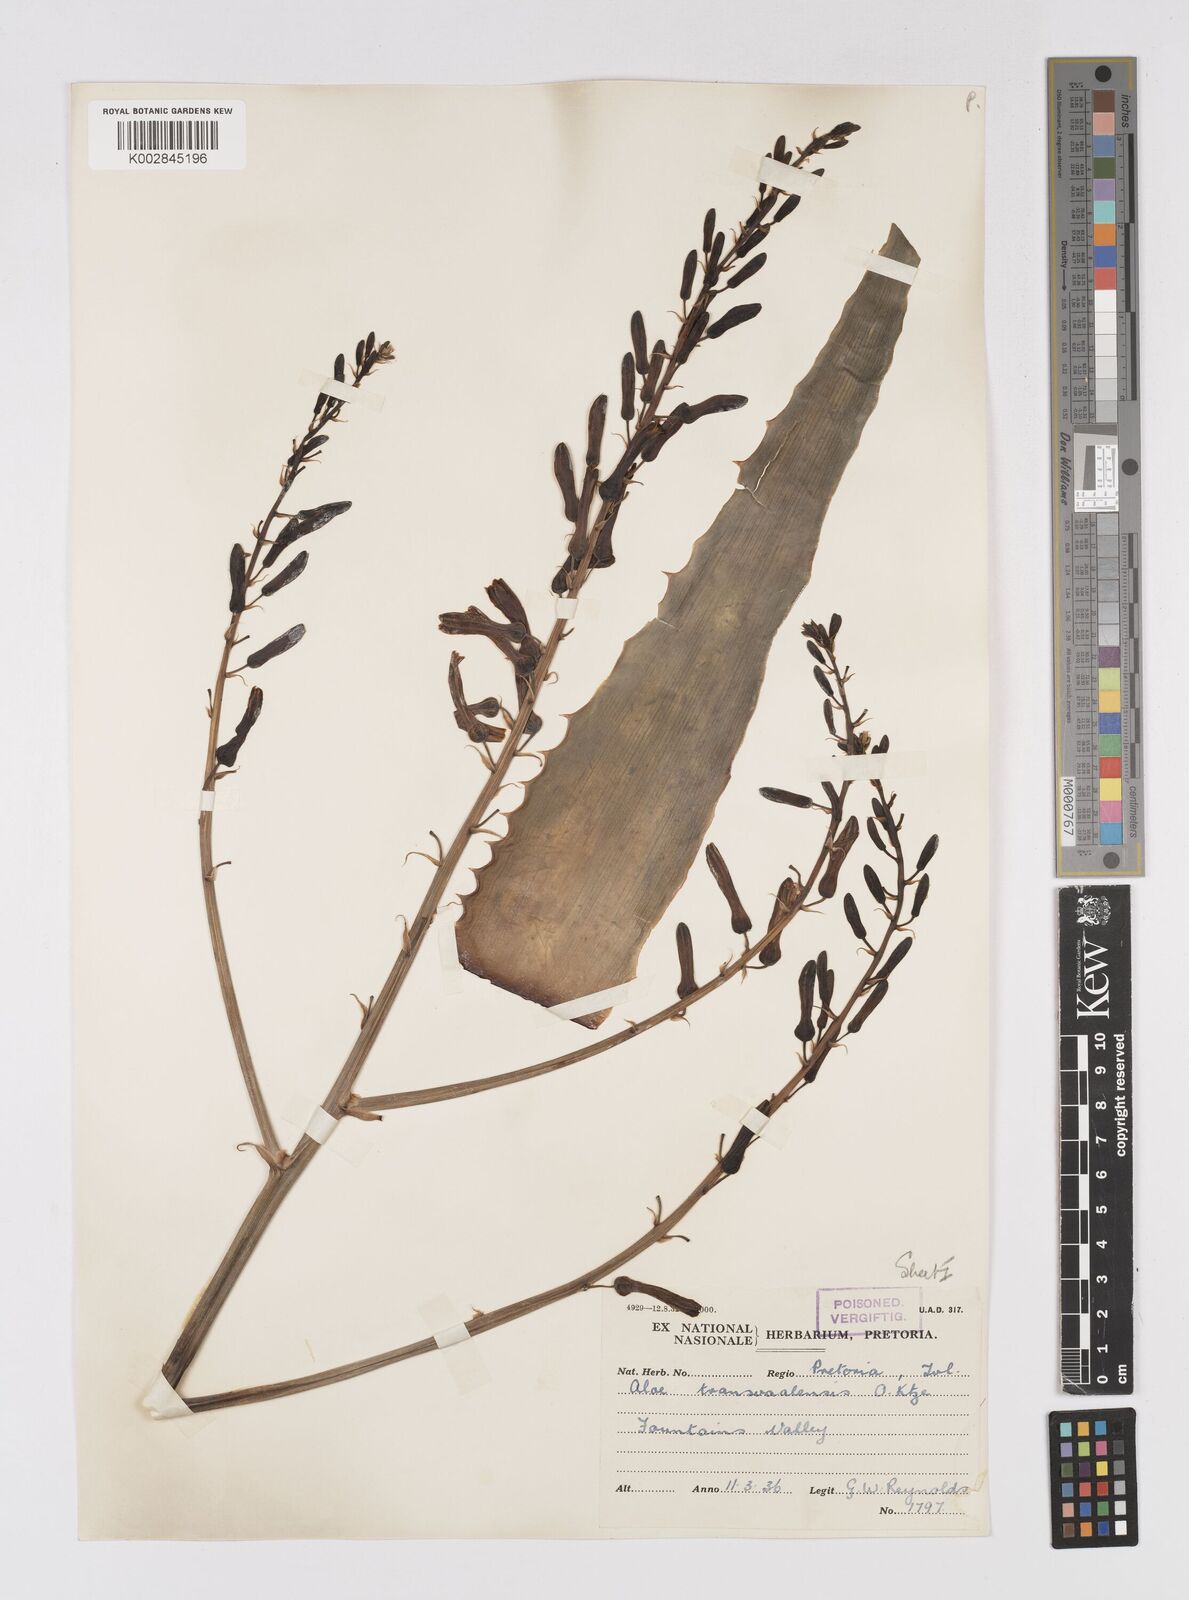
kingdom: Plantae
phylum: Tracheophyta
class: Liliopsida
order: Asparagales
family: Asphodelaceae
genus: Aloe
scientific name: Aloe transvaalensis
